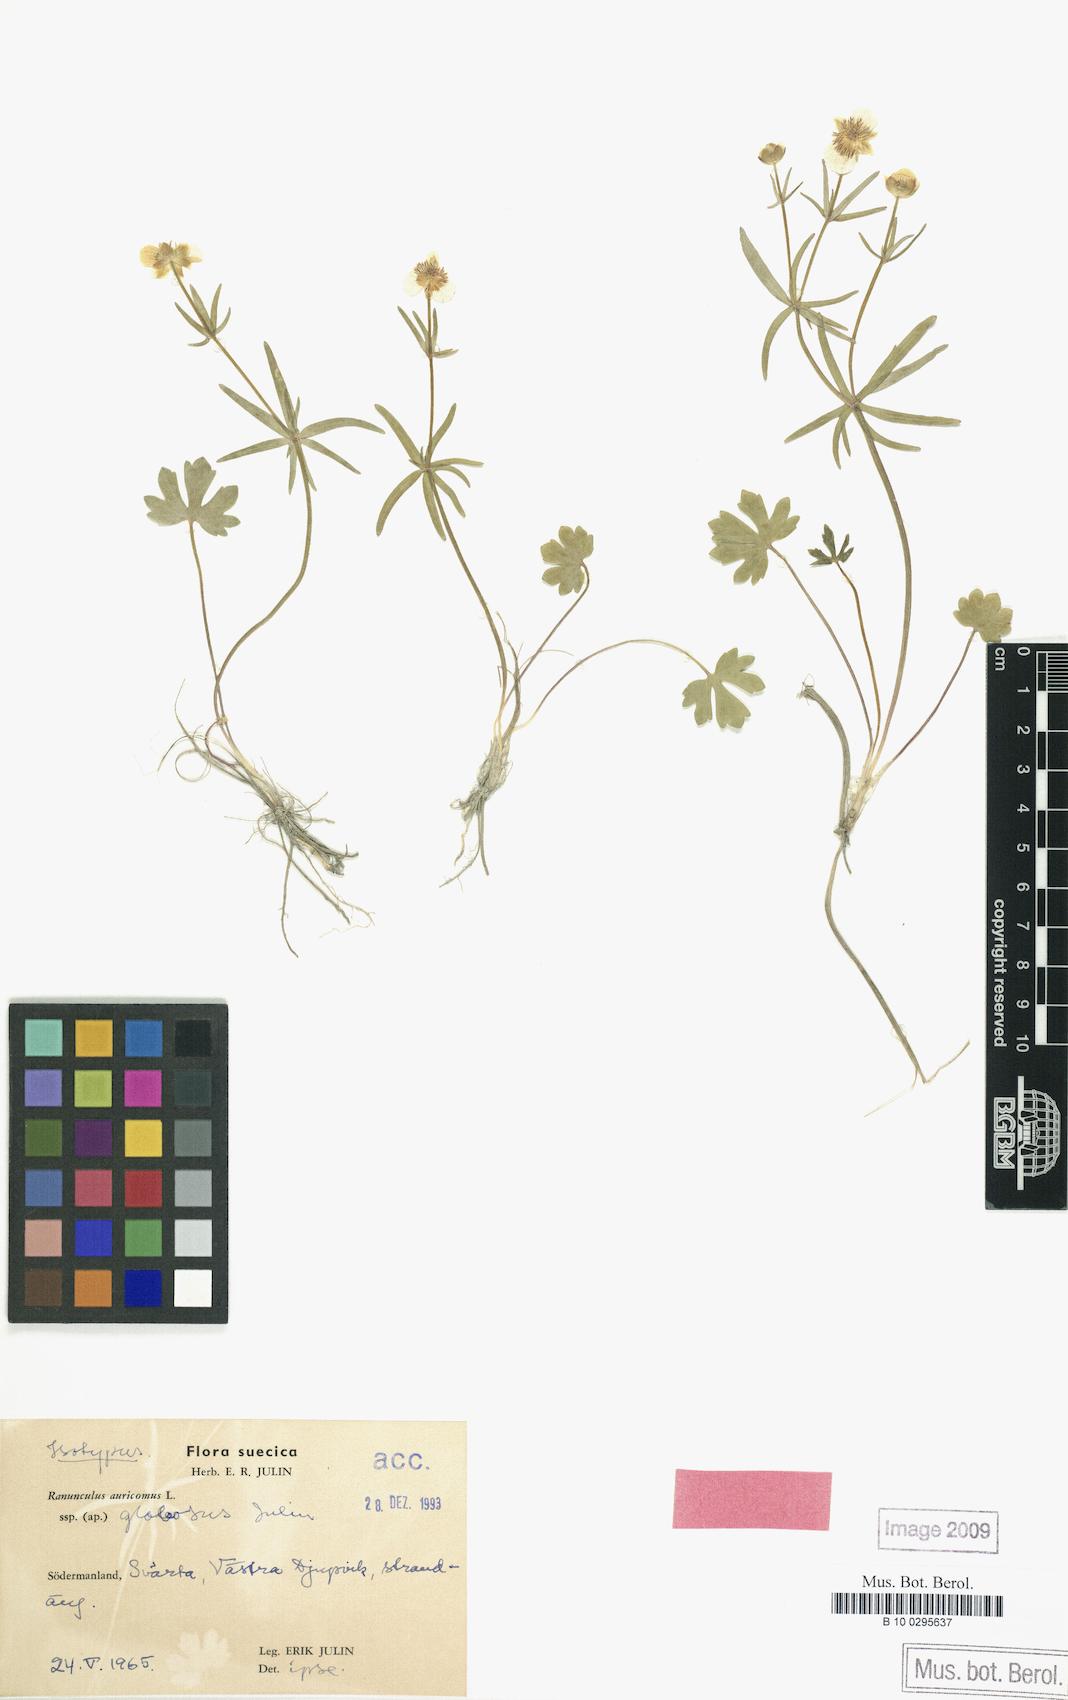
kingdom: Plantae
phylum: Tracheophyta
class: Magnoliopsida
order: Ranunculales
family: Ranunculaceae
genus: Ranunculus
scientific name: Ranunculus globosus
